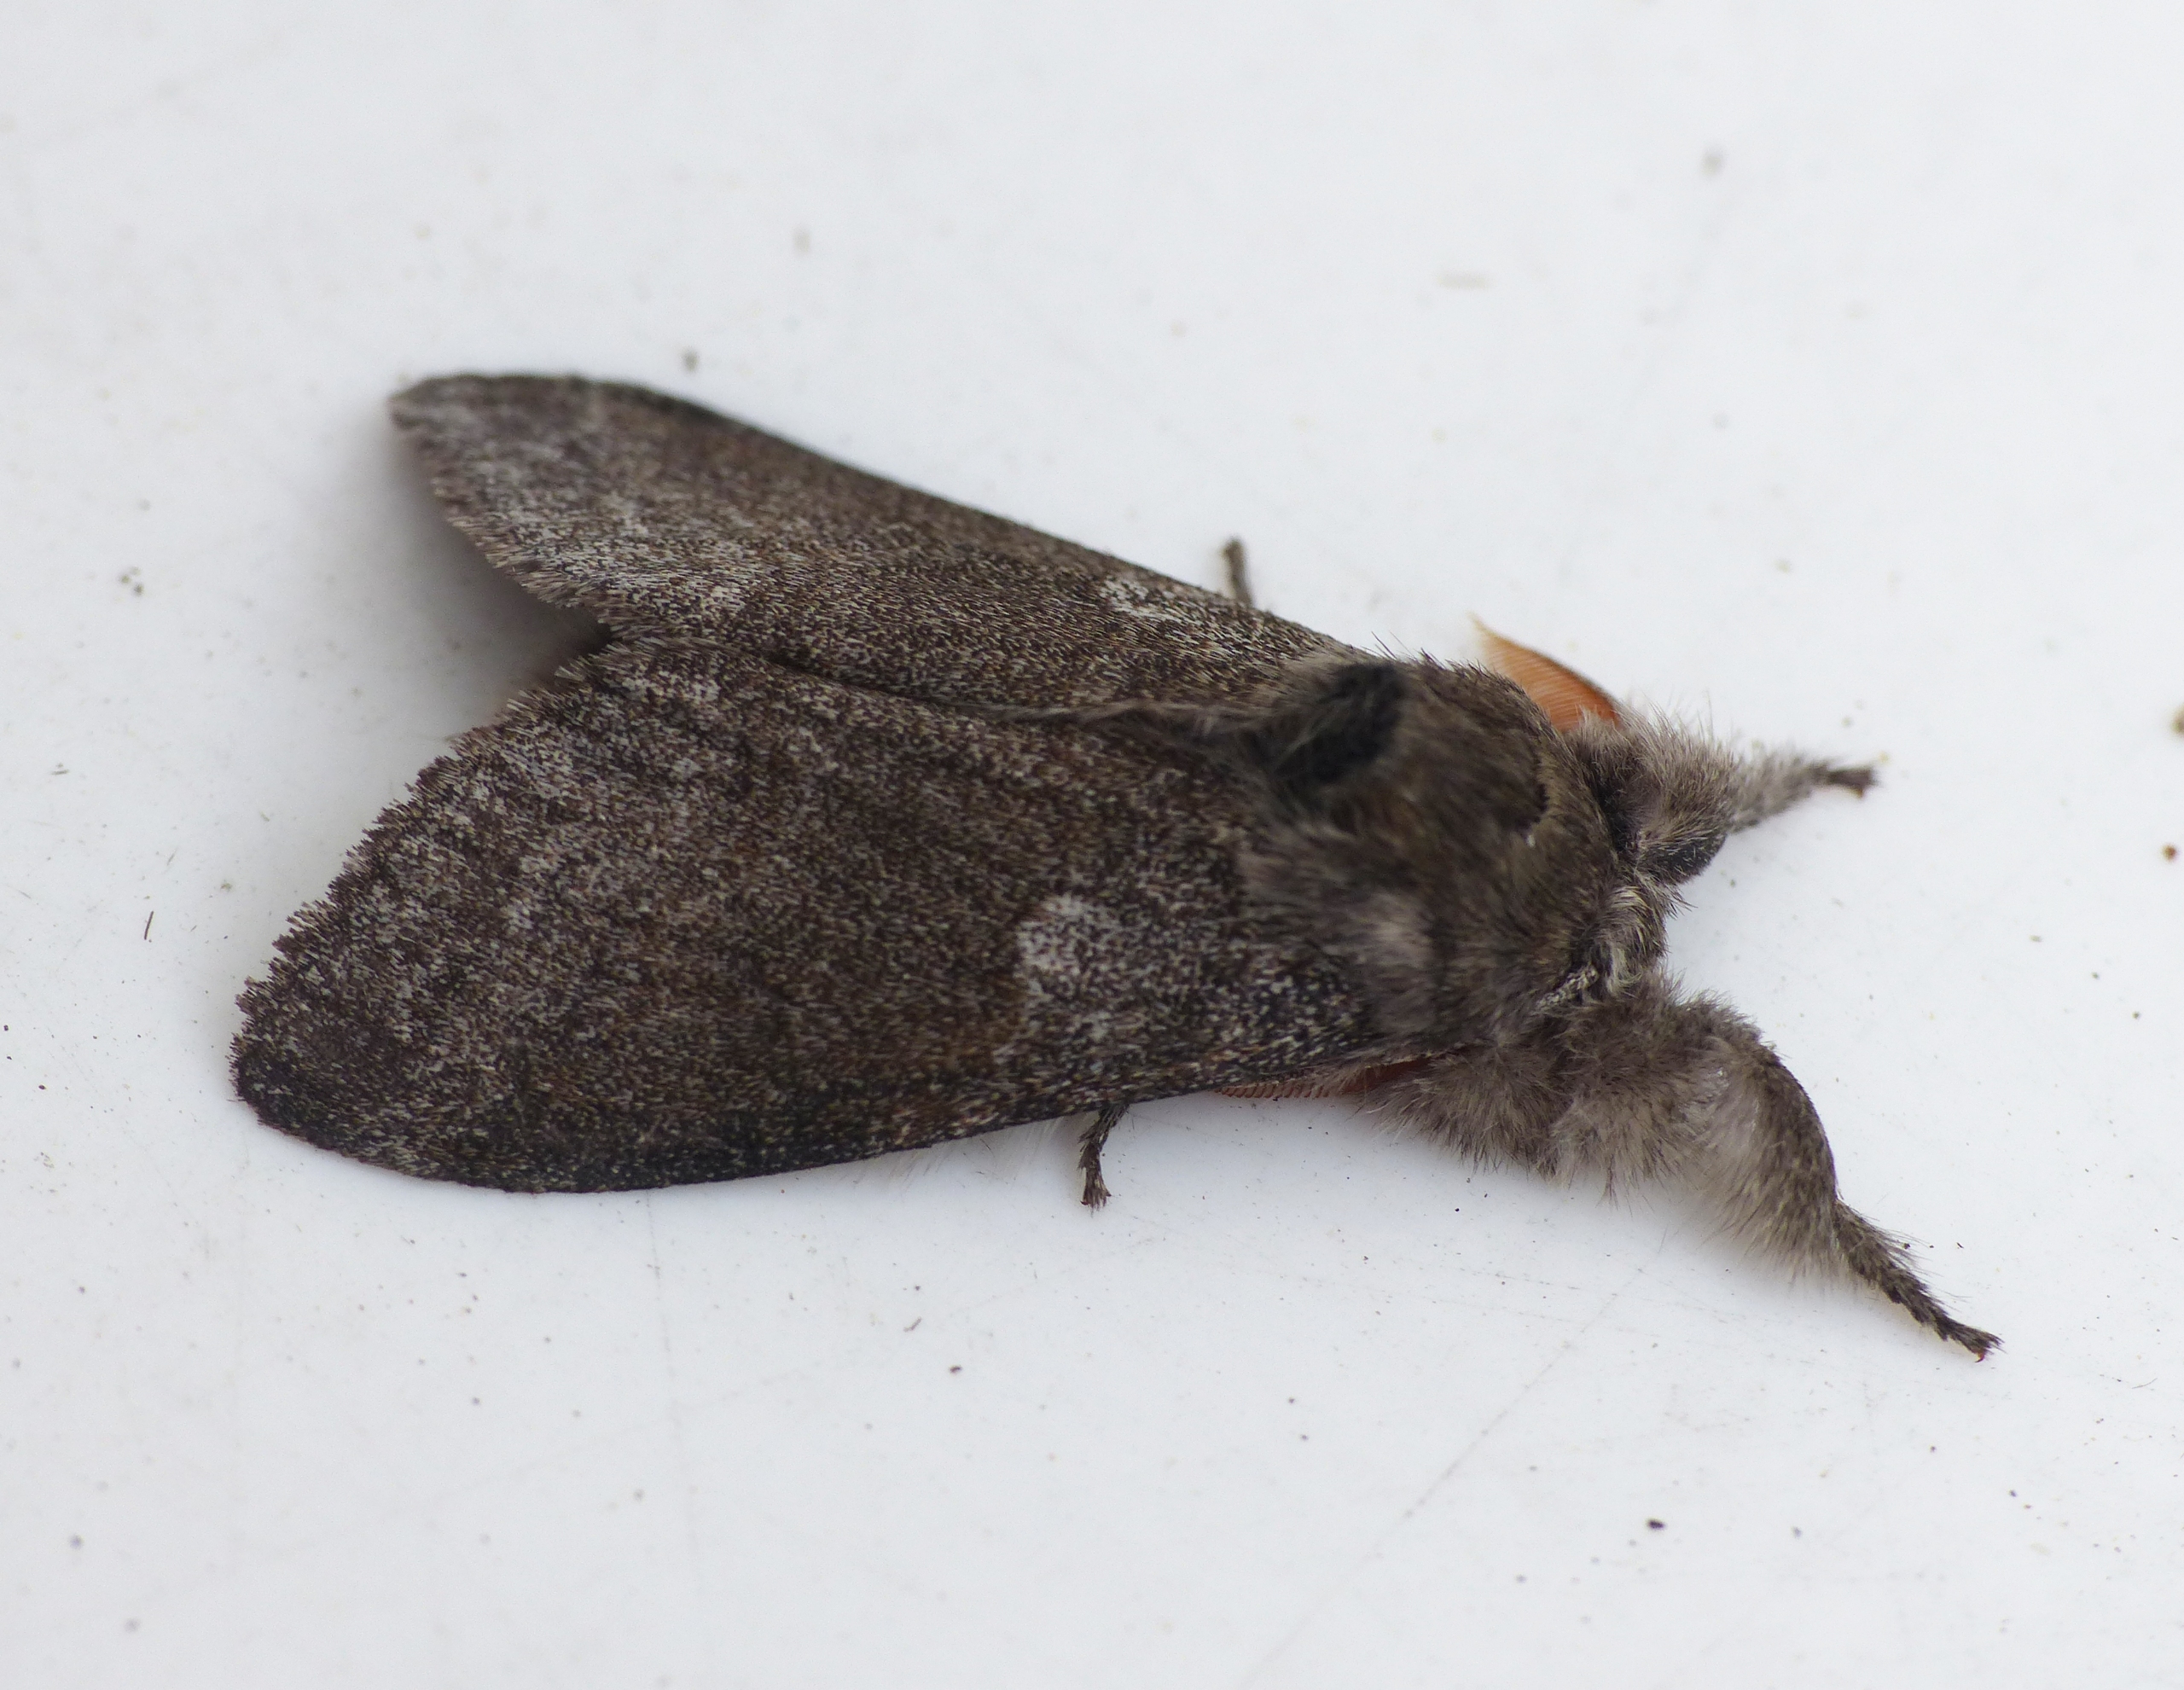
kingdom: Animalia
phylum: Arthropoda
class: Insecta
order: Lepidoptera
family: Erebidae
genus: Calliteara
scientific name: Calliteara pudibunda
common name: Bøgenonne
